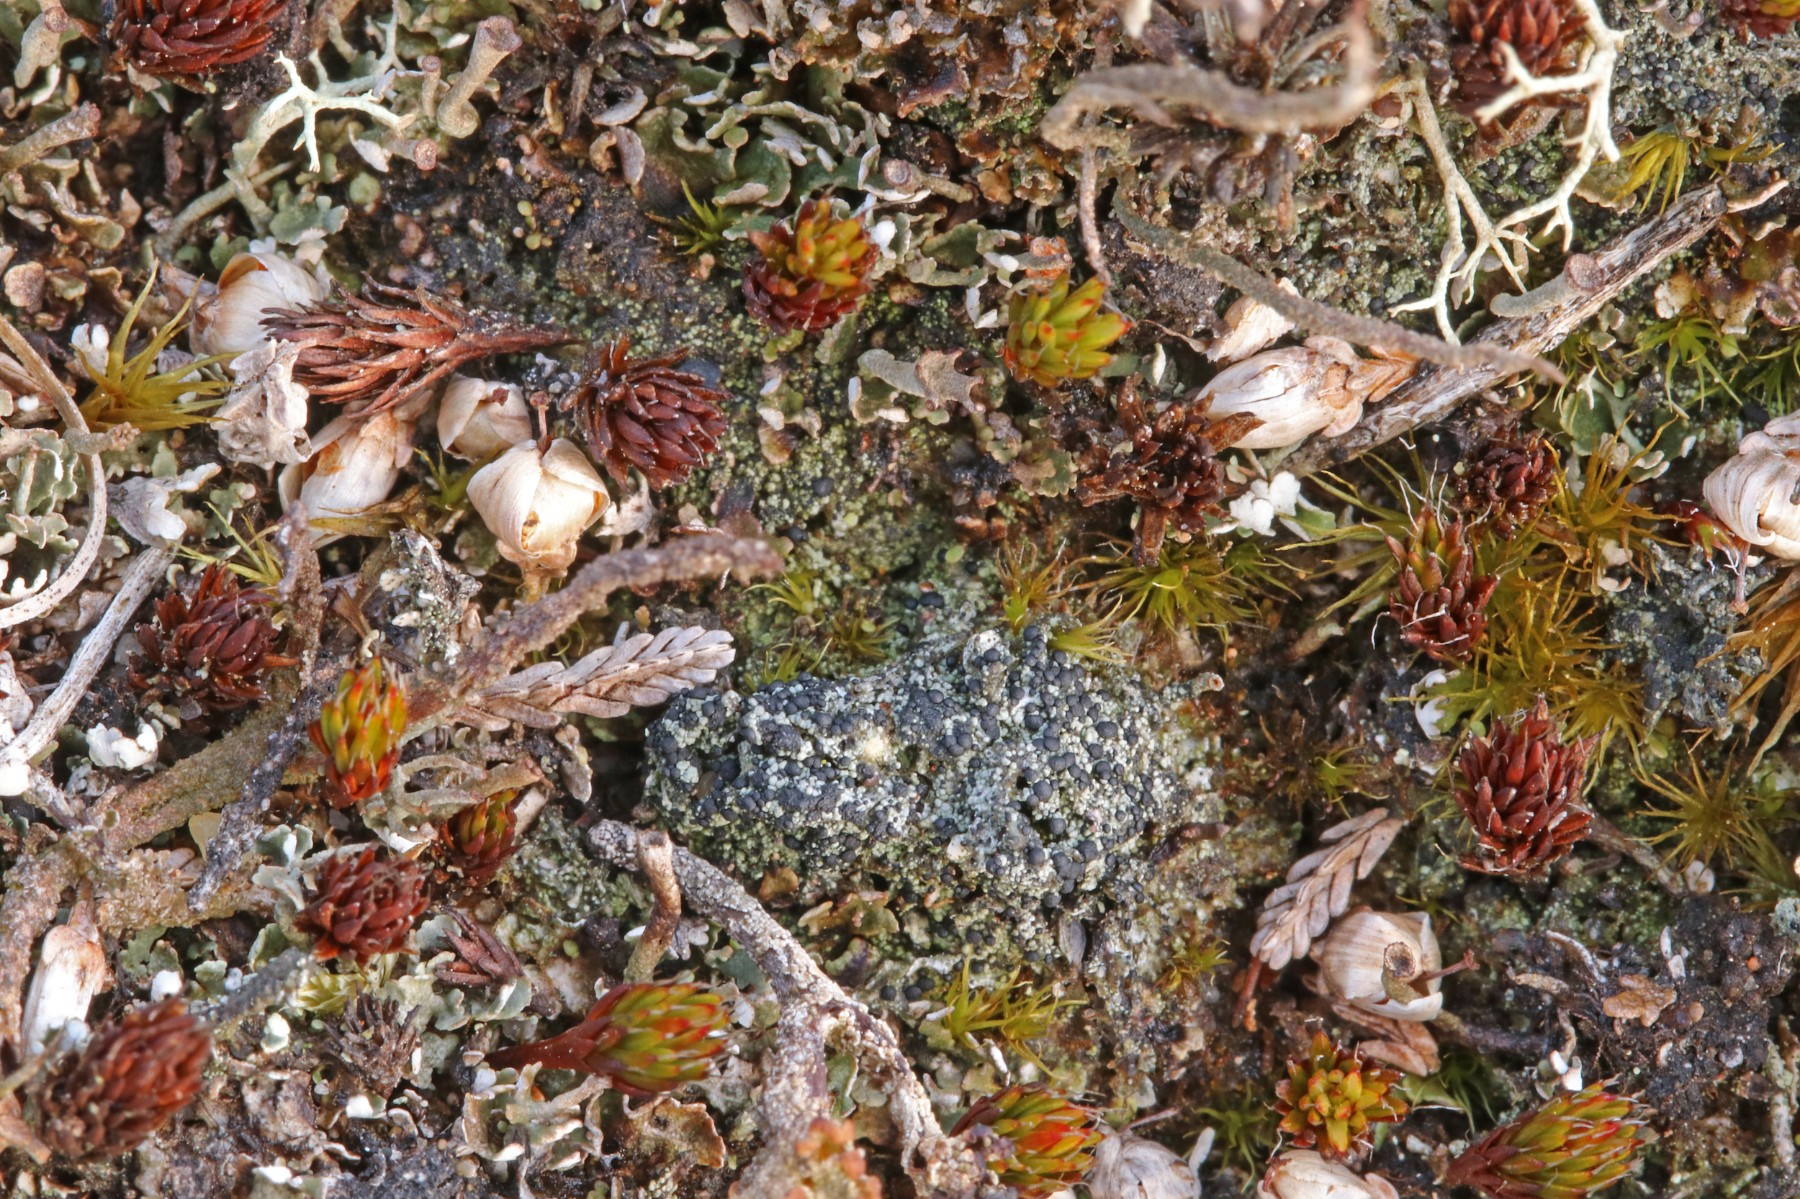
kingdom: Fungi
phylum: Ascomycota
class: Lecanoromycetes
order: Lecanorales
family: Byssolomataceae
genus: Micarea
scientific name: Micarea lignaria
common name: tørve-knaplav
